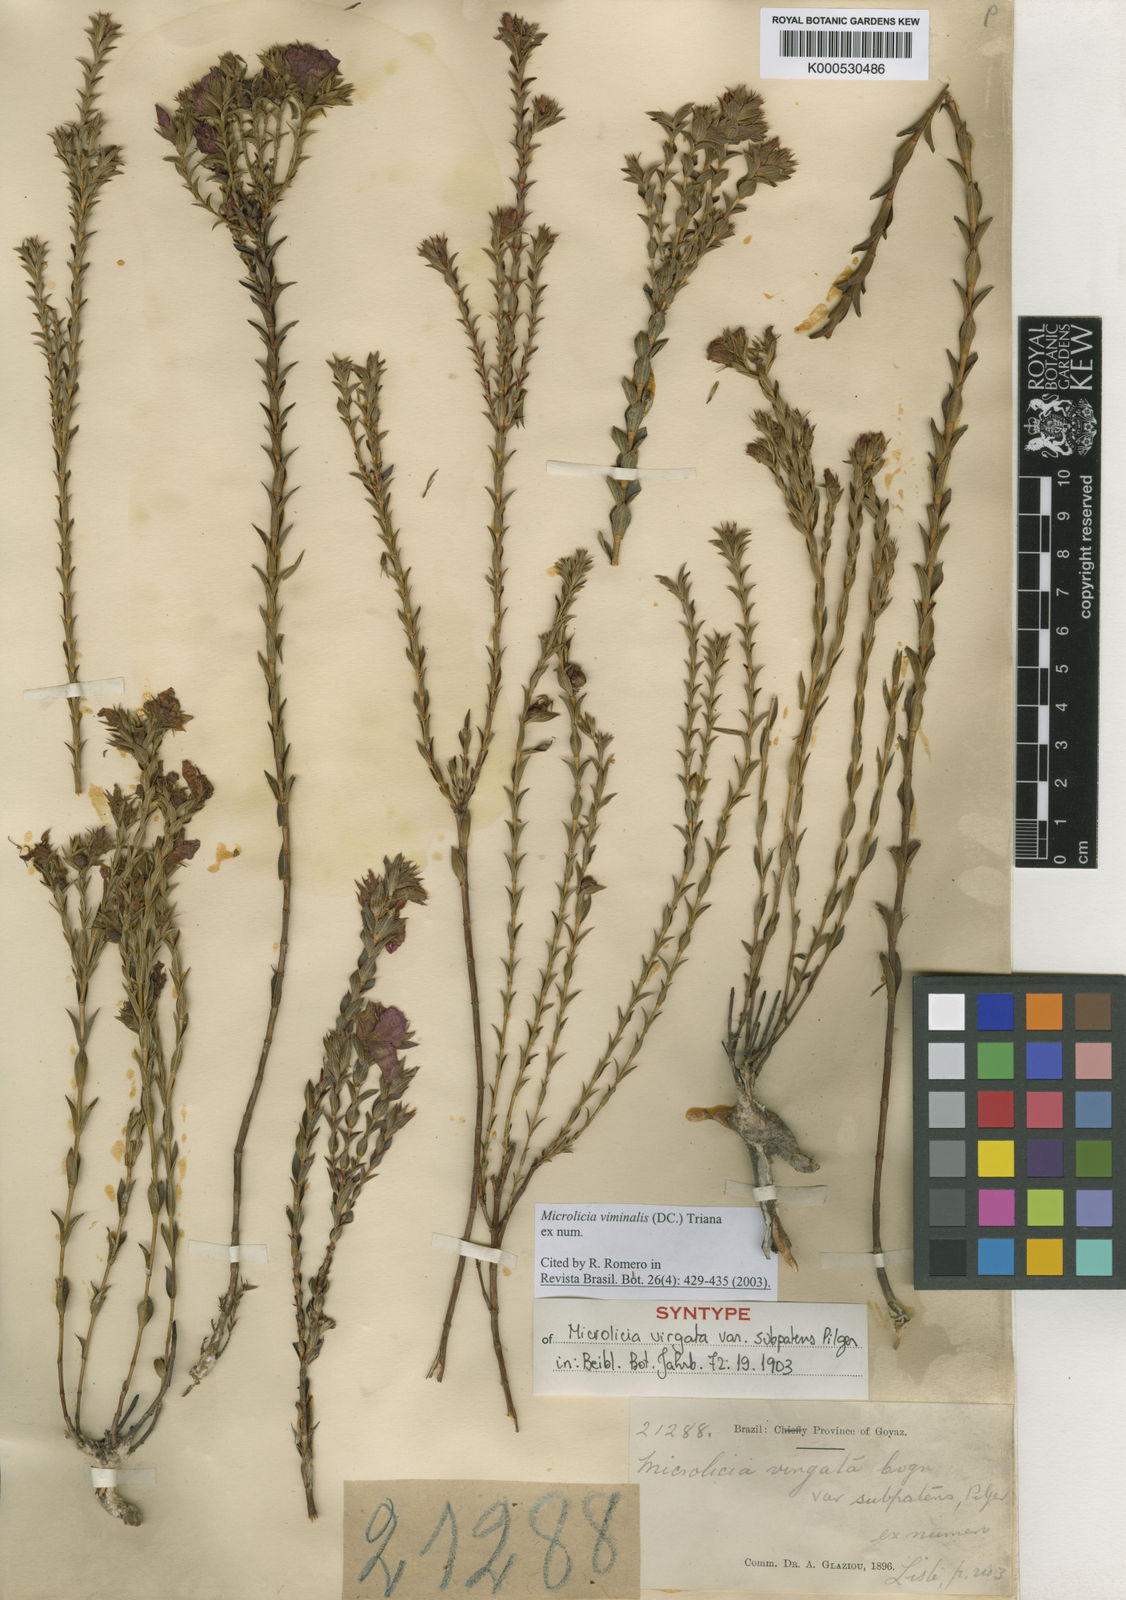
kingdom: Plantae
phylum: Tracheophyta
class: Magnoliopsida
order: Myrtales
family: Melastomataceae
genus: Microlicia
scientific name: Microlicia viminalis
